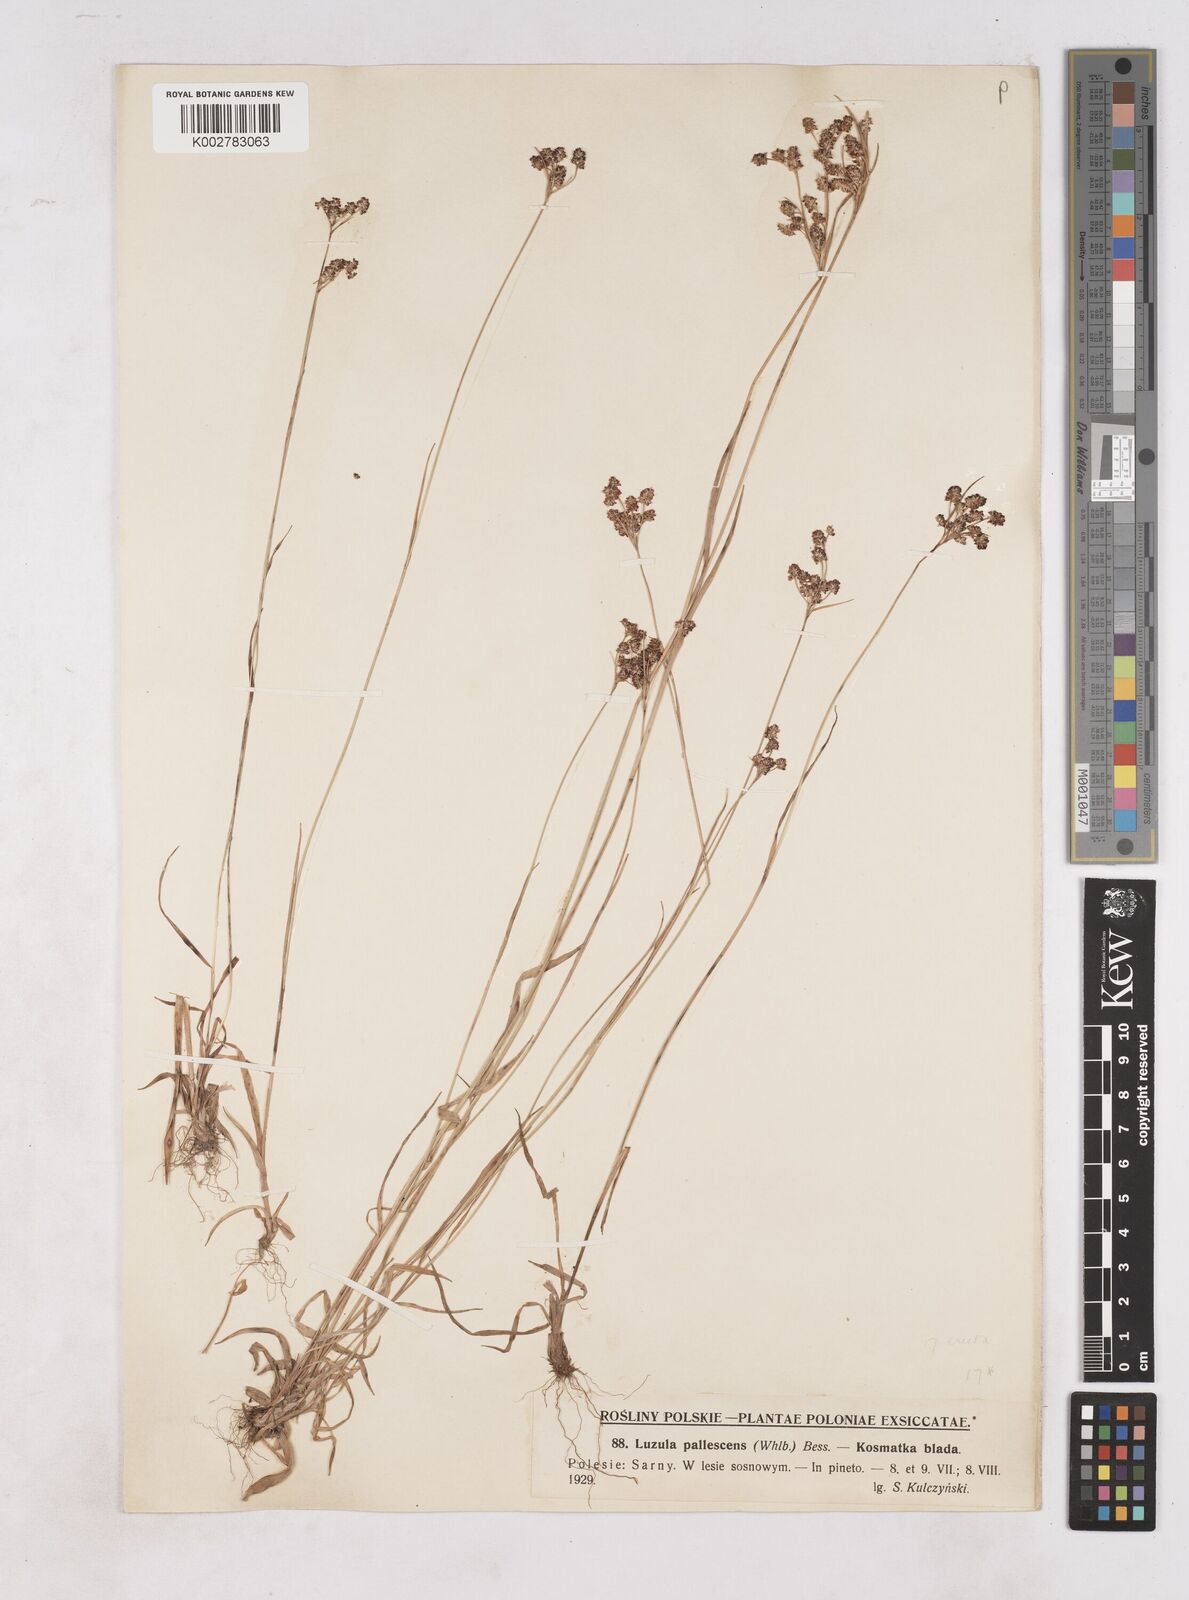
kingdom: Plantae
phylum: Tracheophyta
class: Liliopsida
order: Poales
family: Juncaceae
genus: Luzula
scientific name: Luzula pallescens
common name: Fen wood-rush
